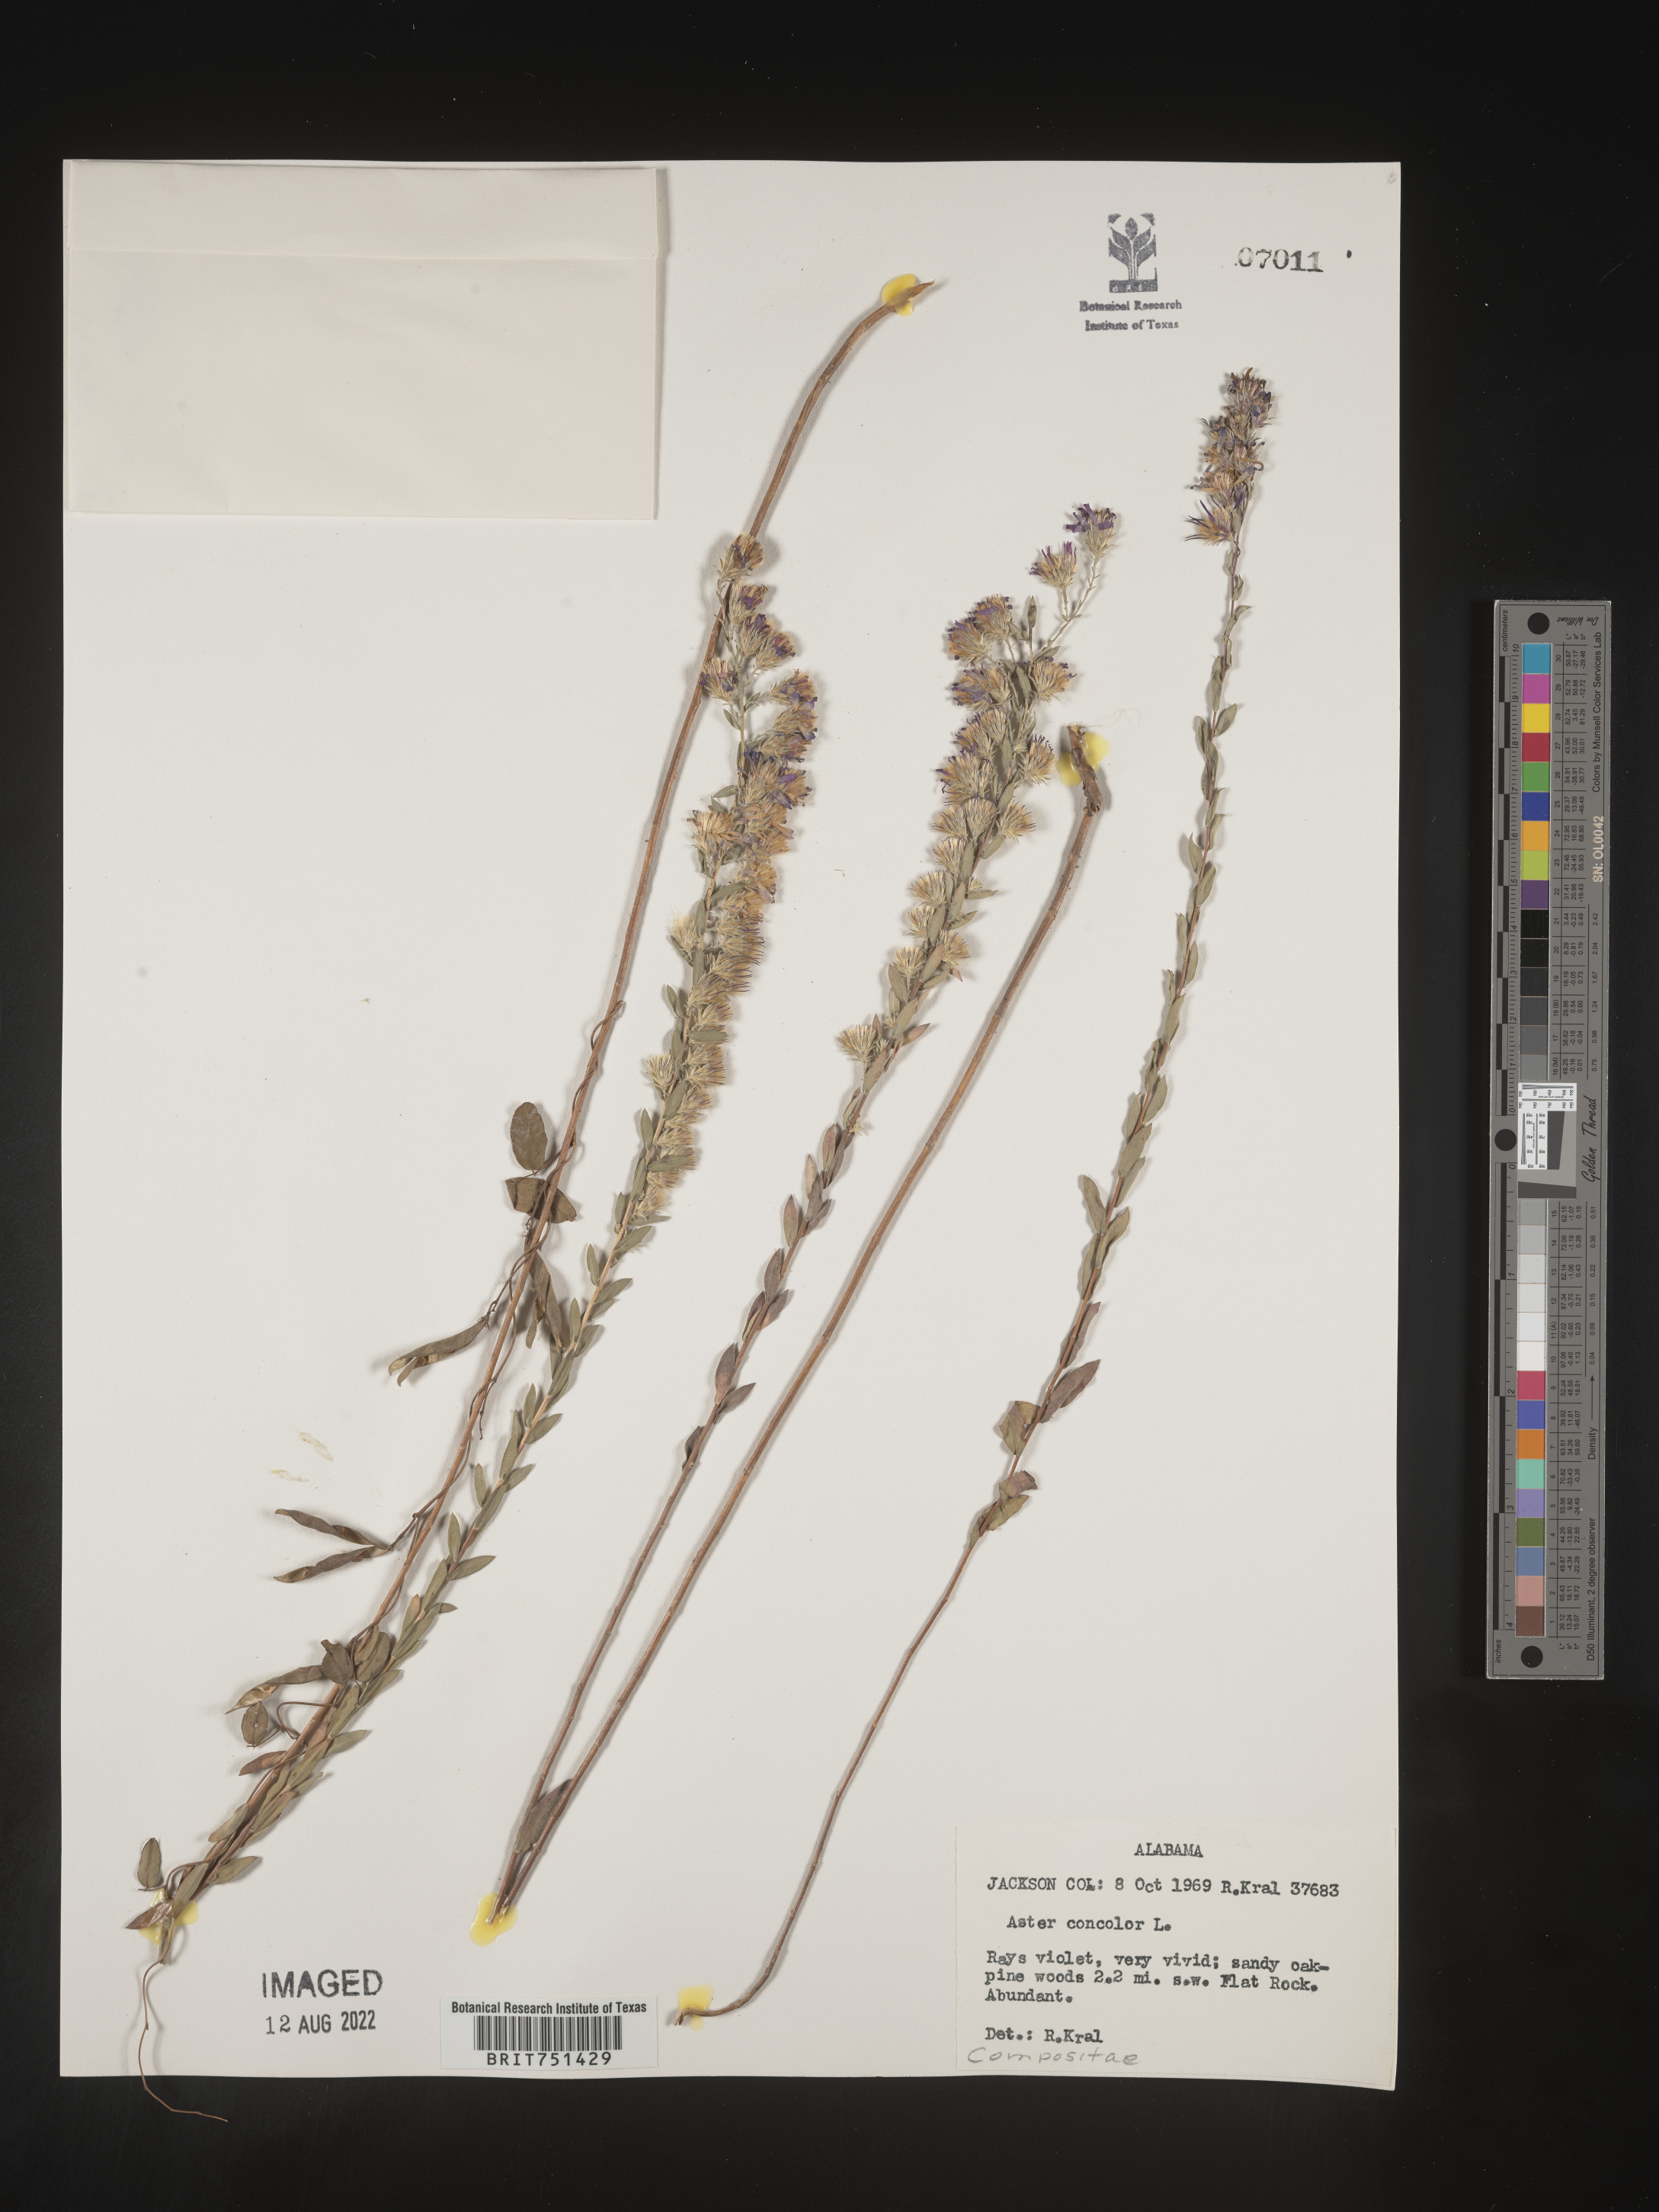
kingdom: Plantae
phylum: Tracheophyta
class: Magnoliopsida
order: Asterales
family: Asteraceae
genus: Symphyotrichum
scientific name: Symphyotrichum concolor
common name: Eastern silver aster
